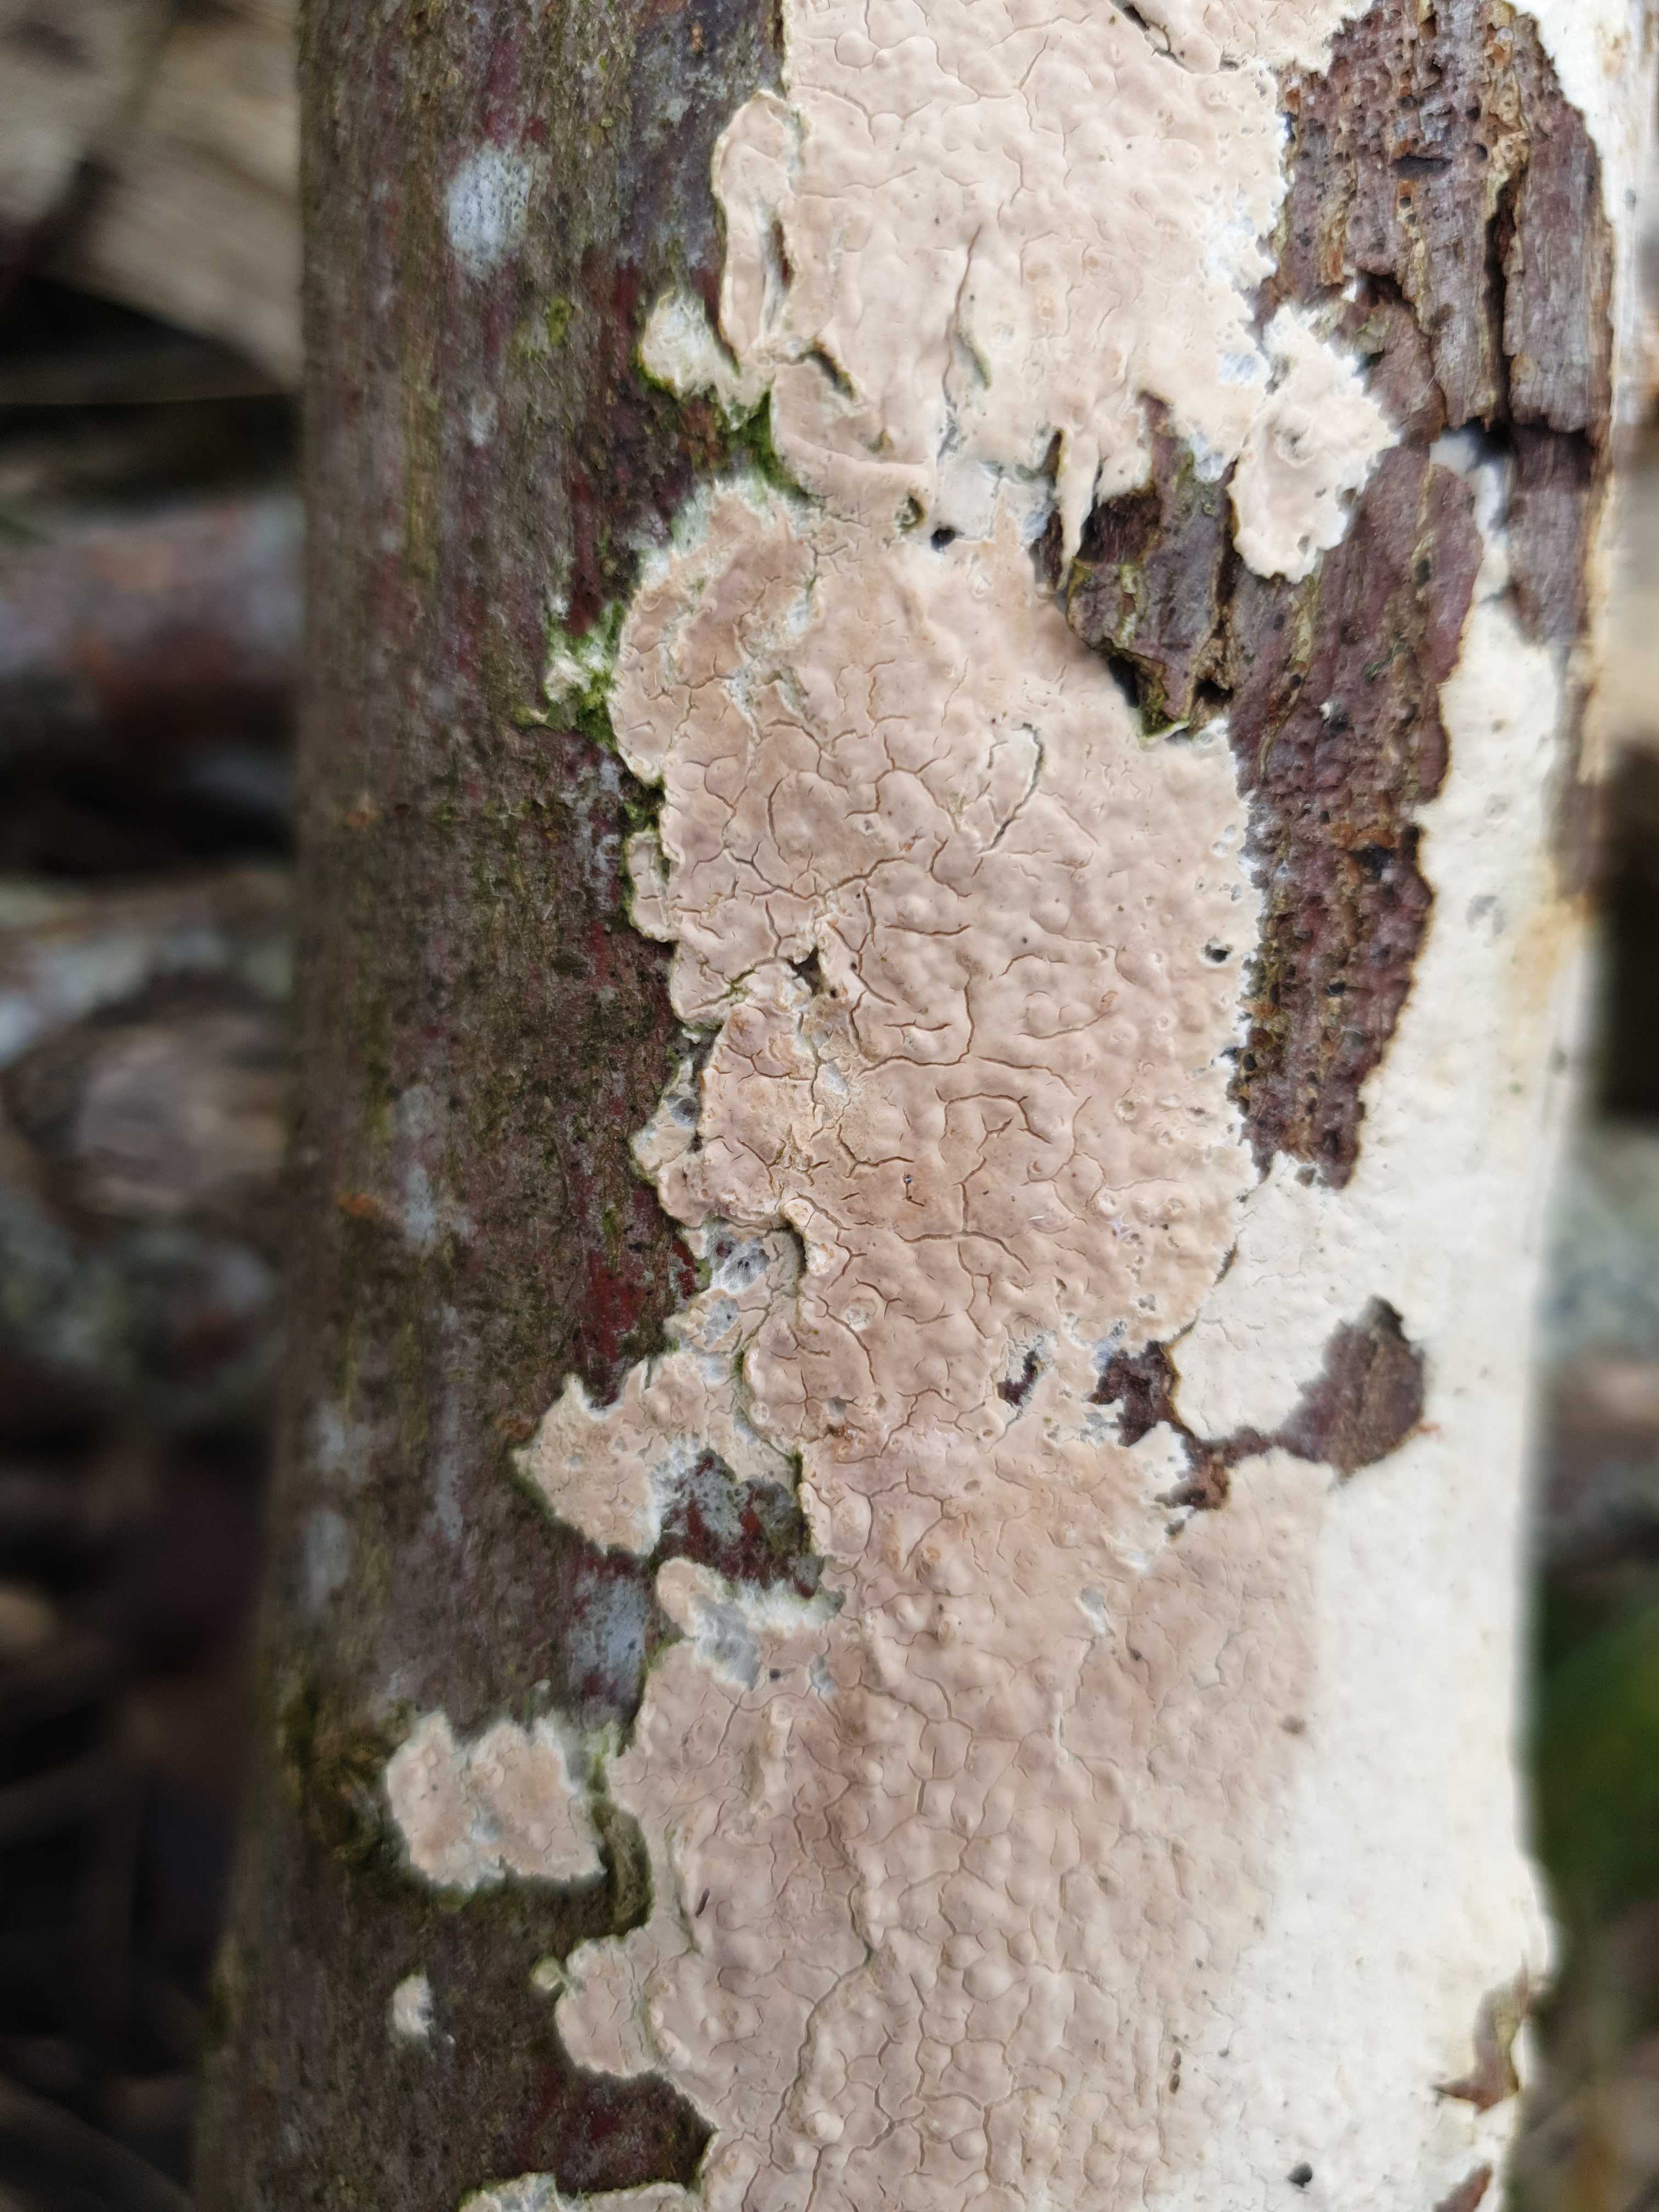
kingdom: Fungi
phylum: Basidiomycota
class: Agaricomycetes
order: Agaricales
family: Physalacriaceae
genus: Cylindrobasidium
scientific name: Cylindrobasidium evolvens
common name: sprækkehinde
